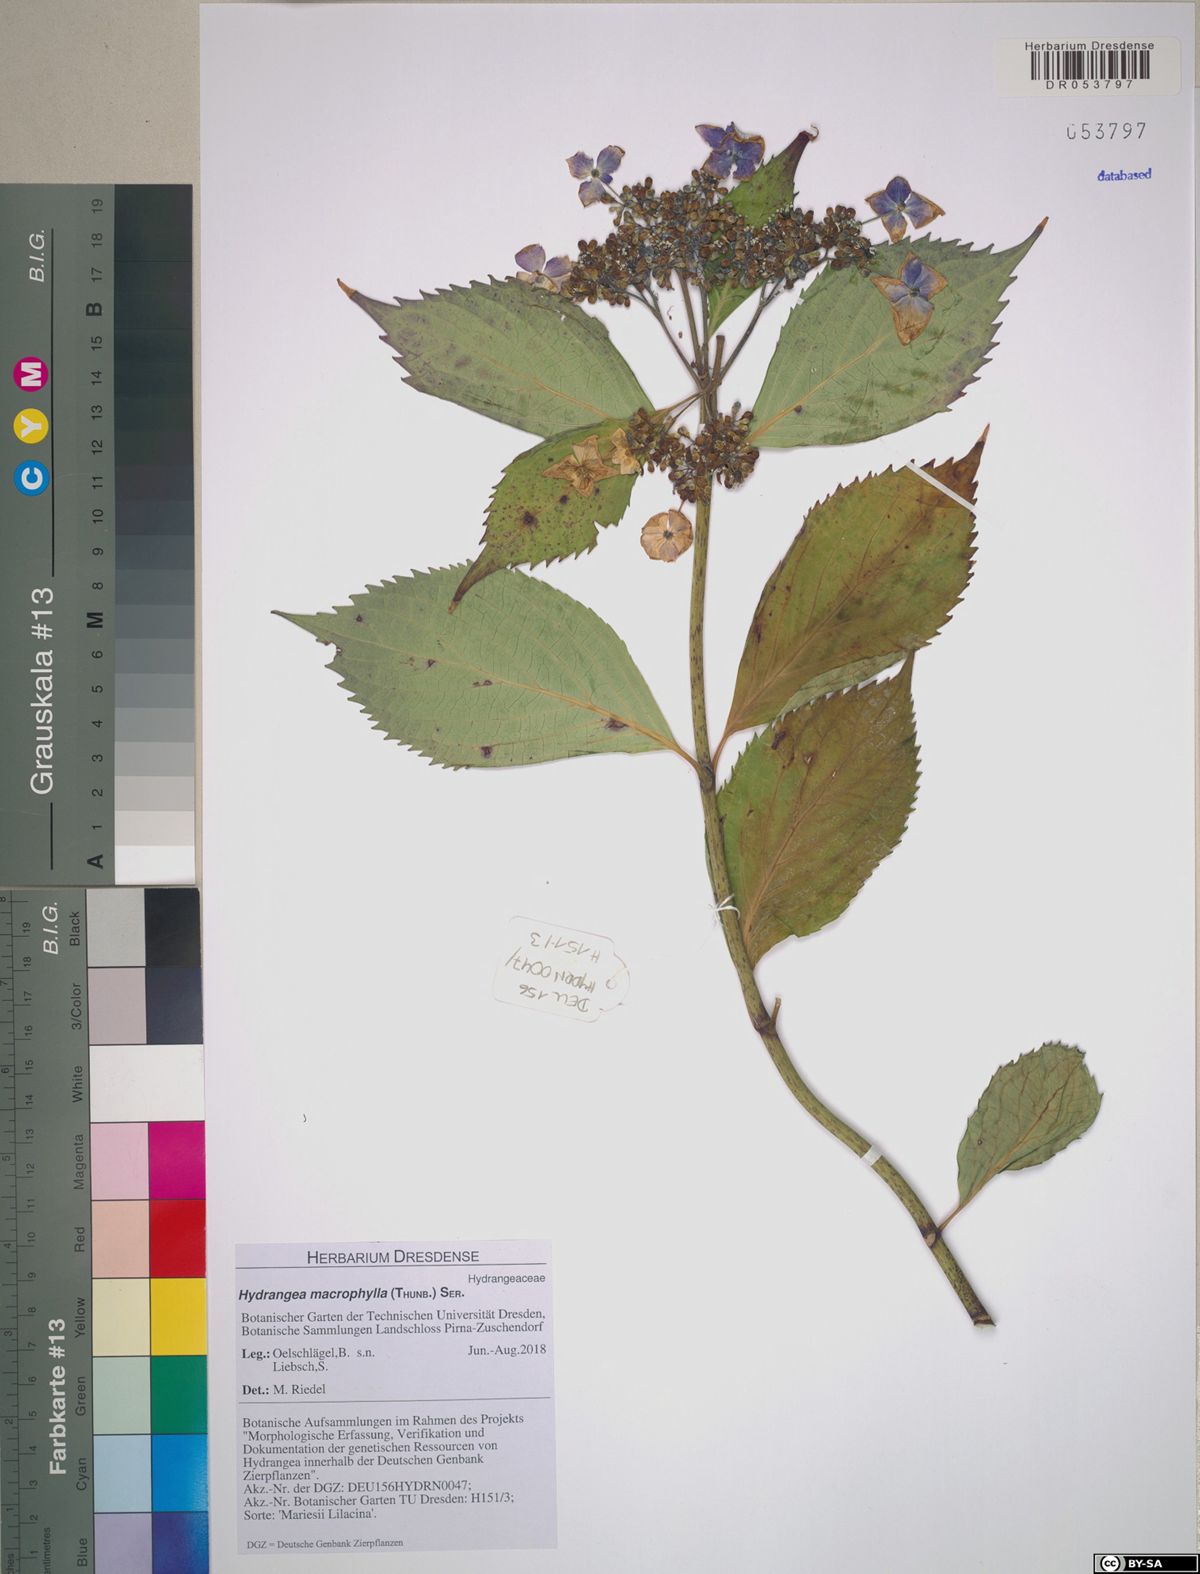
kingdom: Plantae
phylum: Tracheophyta
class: Magnoliopsida
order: Cornales
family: Hydrangeaceae
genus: Hydrangea
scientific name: Hydrangea macrophylla
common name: Hydrangea
